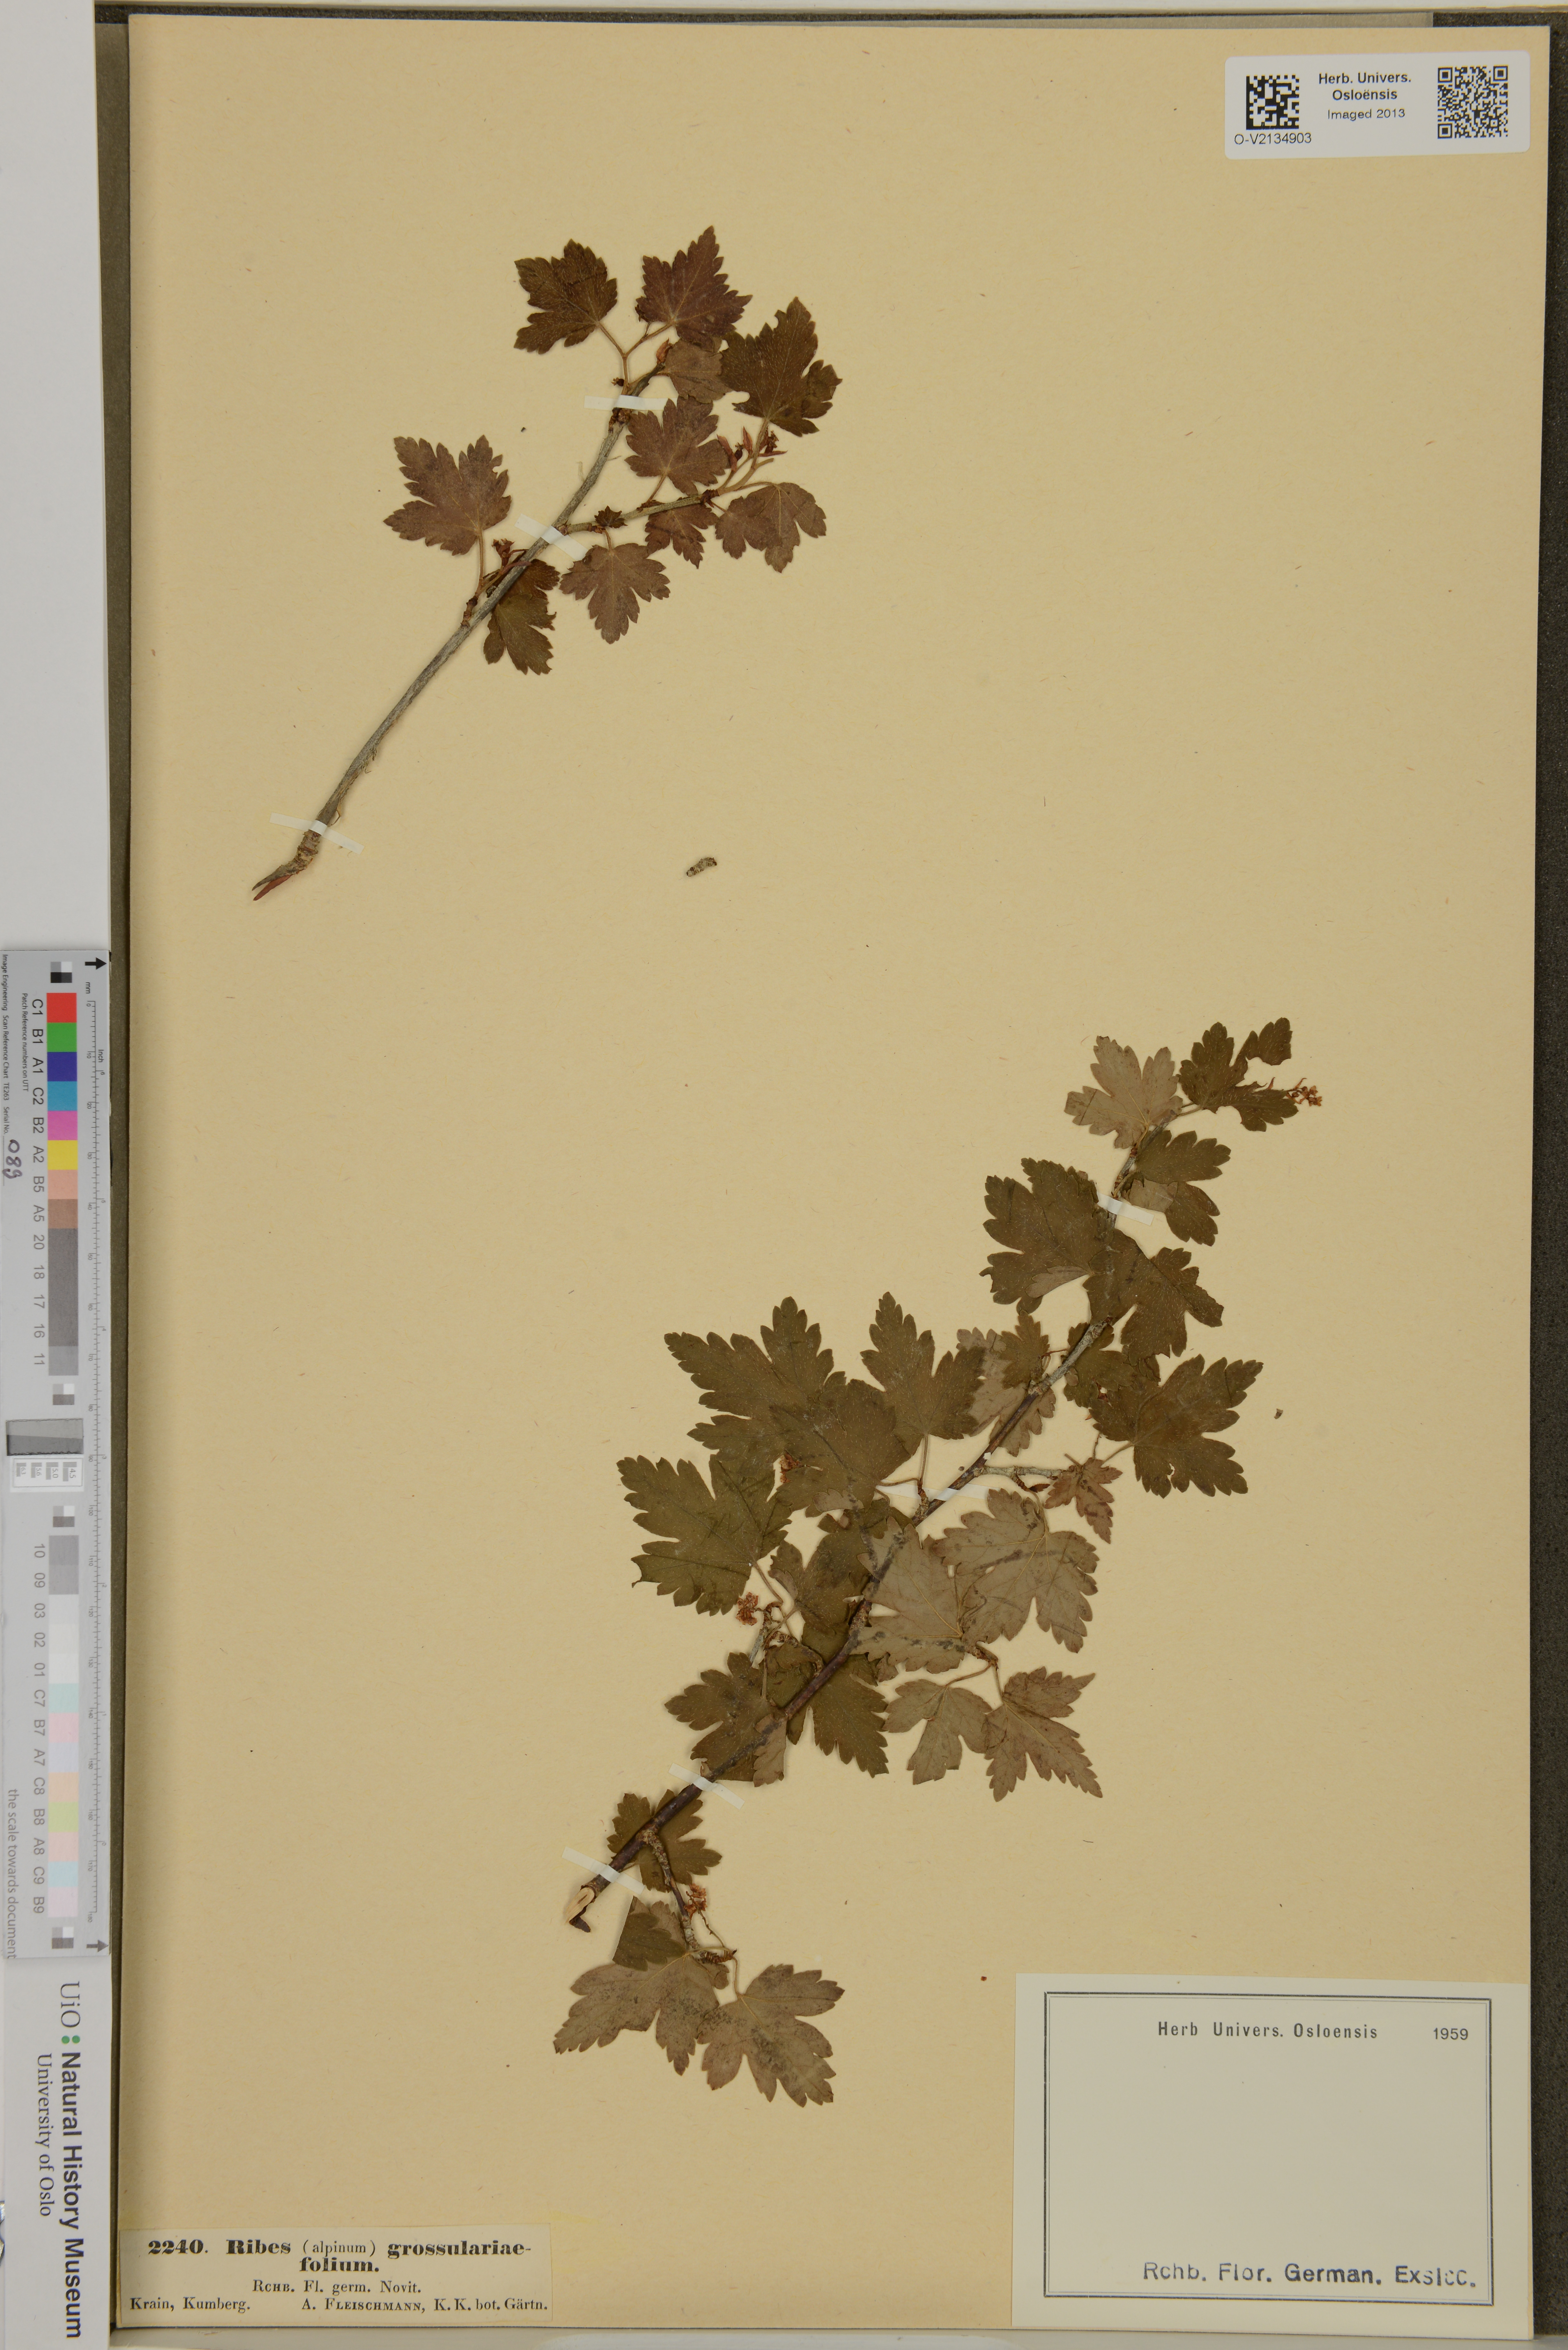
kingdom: Plantae
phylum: Tracheophyta
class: Magnoliopsida
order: Saxifragales
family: Grossulariaceae
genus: Ribes
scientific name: Ribes alpinum
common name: Alpine currant
